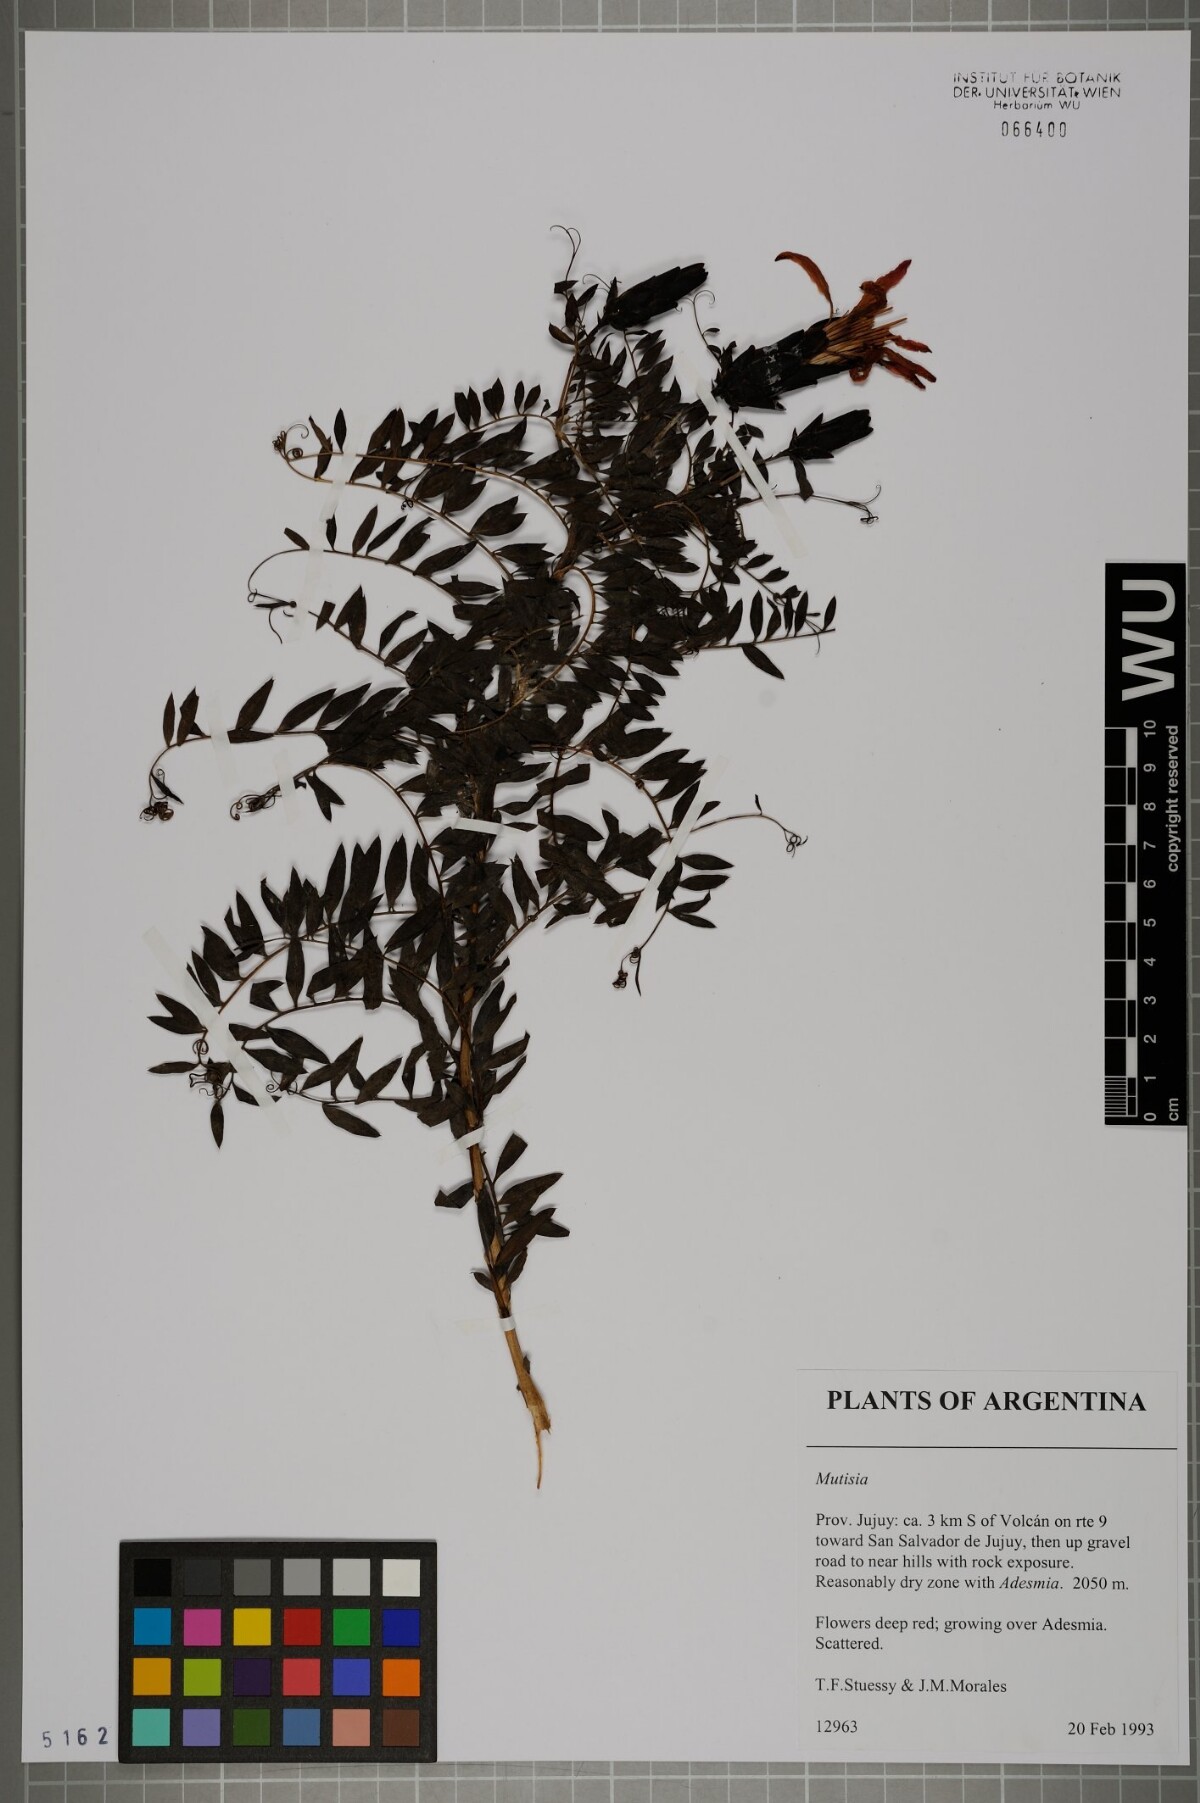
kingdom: Plantae
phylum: Tracheophyta
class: Magnoliopsida
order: Asterales
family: Asteraceae
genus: Mutisia
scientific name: Mutisia
